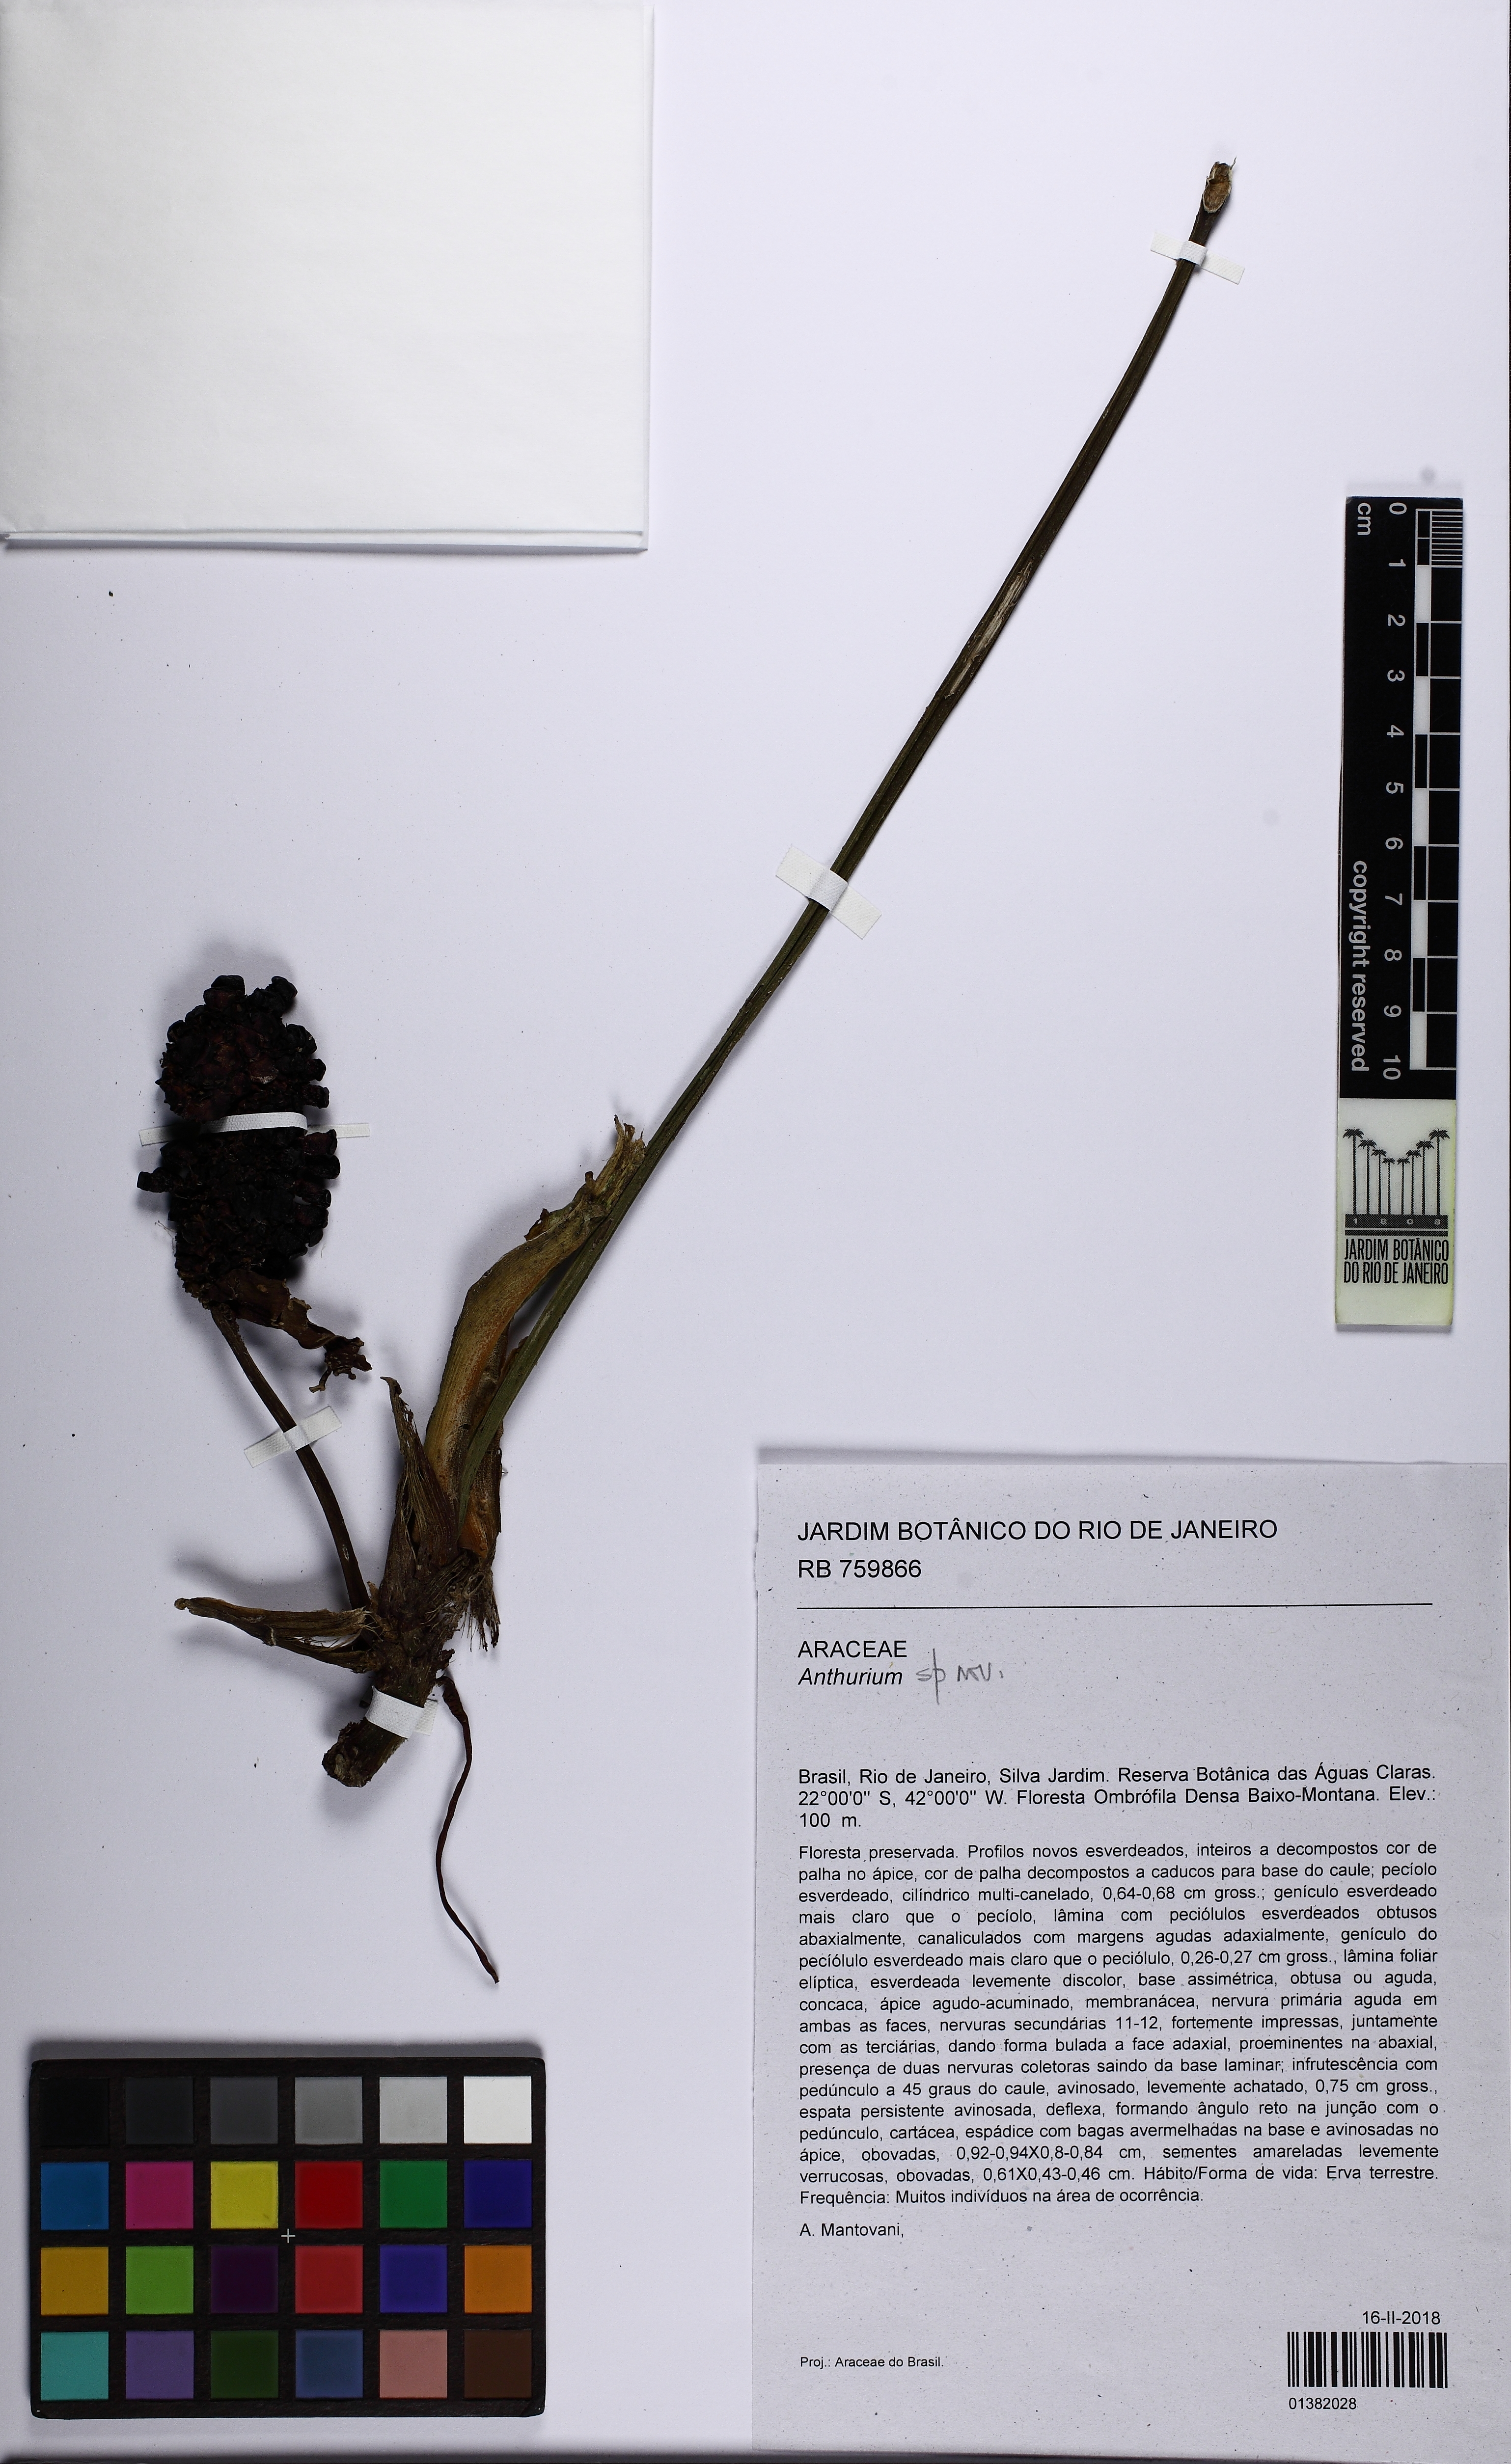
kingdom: Plantae
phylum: Tracheophyta
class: Liliopsida
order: Alismatales
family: Araceae
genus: Anthurium
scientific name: Anthurium
